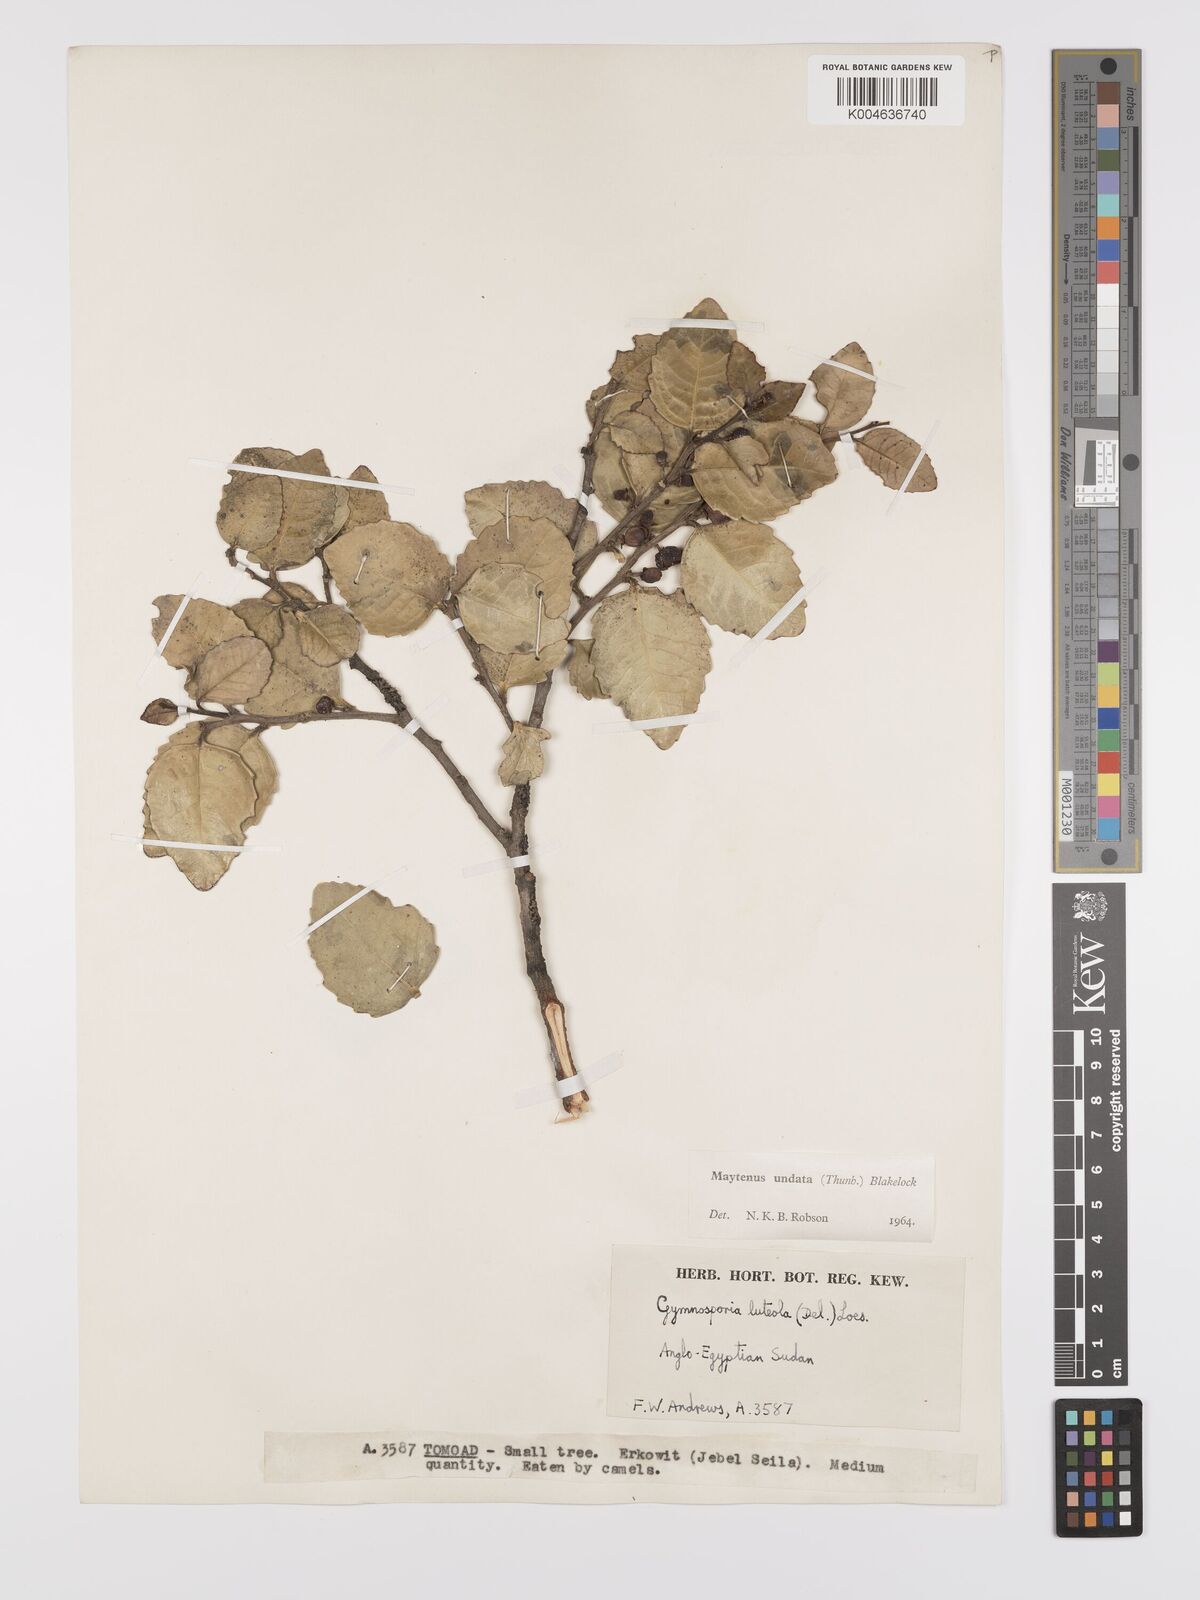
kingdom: Plantae
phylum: Tracheophyta
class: Magnoliopsida
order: Celastrales
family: Celastraceae
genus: Gymnosporia
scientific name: Gymnosporia undata
